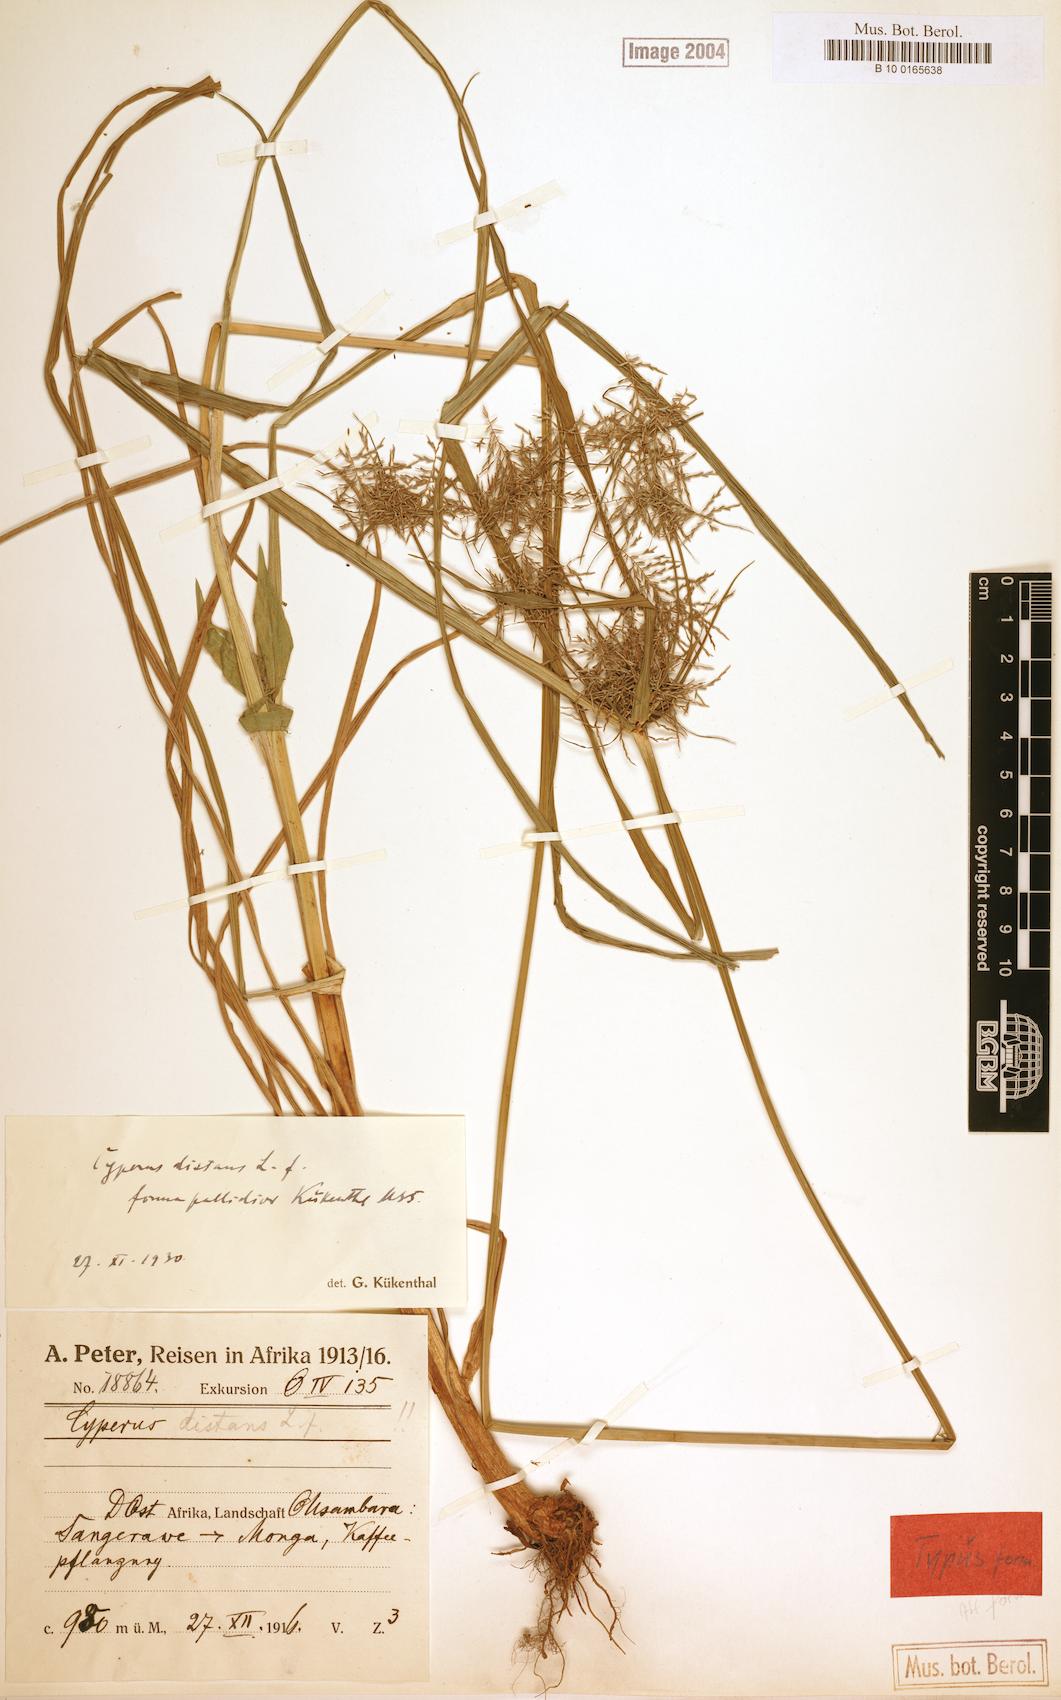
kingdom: Plantae
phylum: Tracheophyta
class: Liliopsida
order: Poales
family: Cyperaceae
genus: Cyperus
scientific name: Cyperus distans
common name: Slender cyperus
